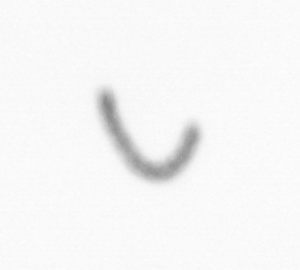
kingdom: Chromista
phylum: Ochrophyta
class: Bacillariophyceae
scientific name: Bacillariophyceae
